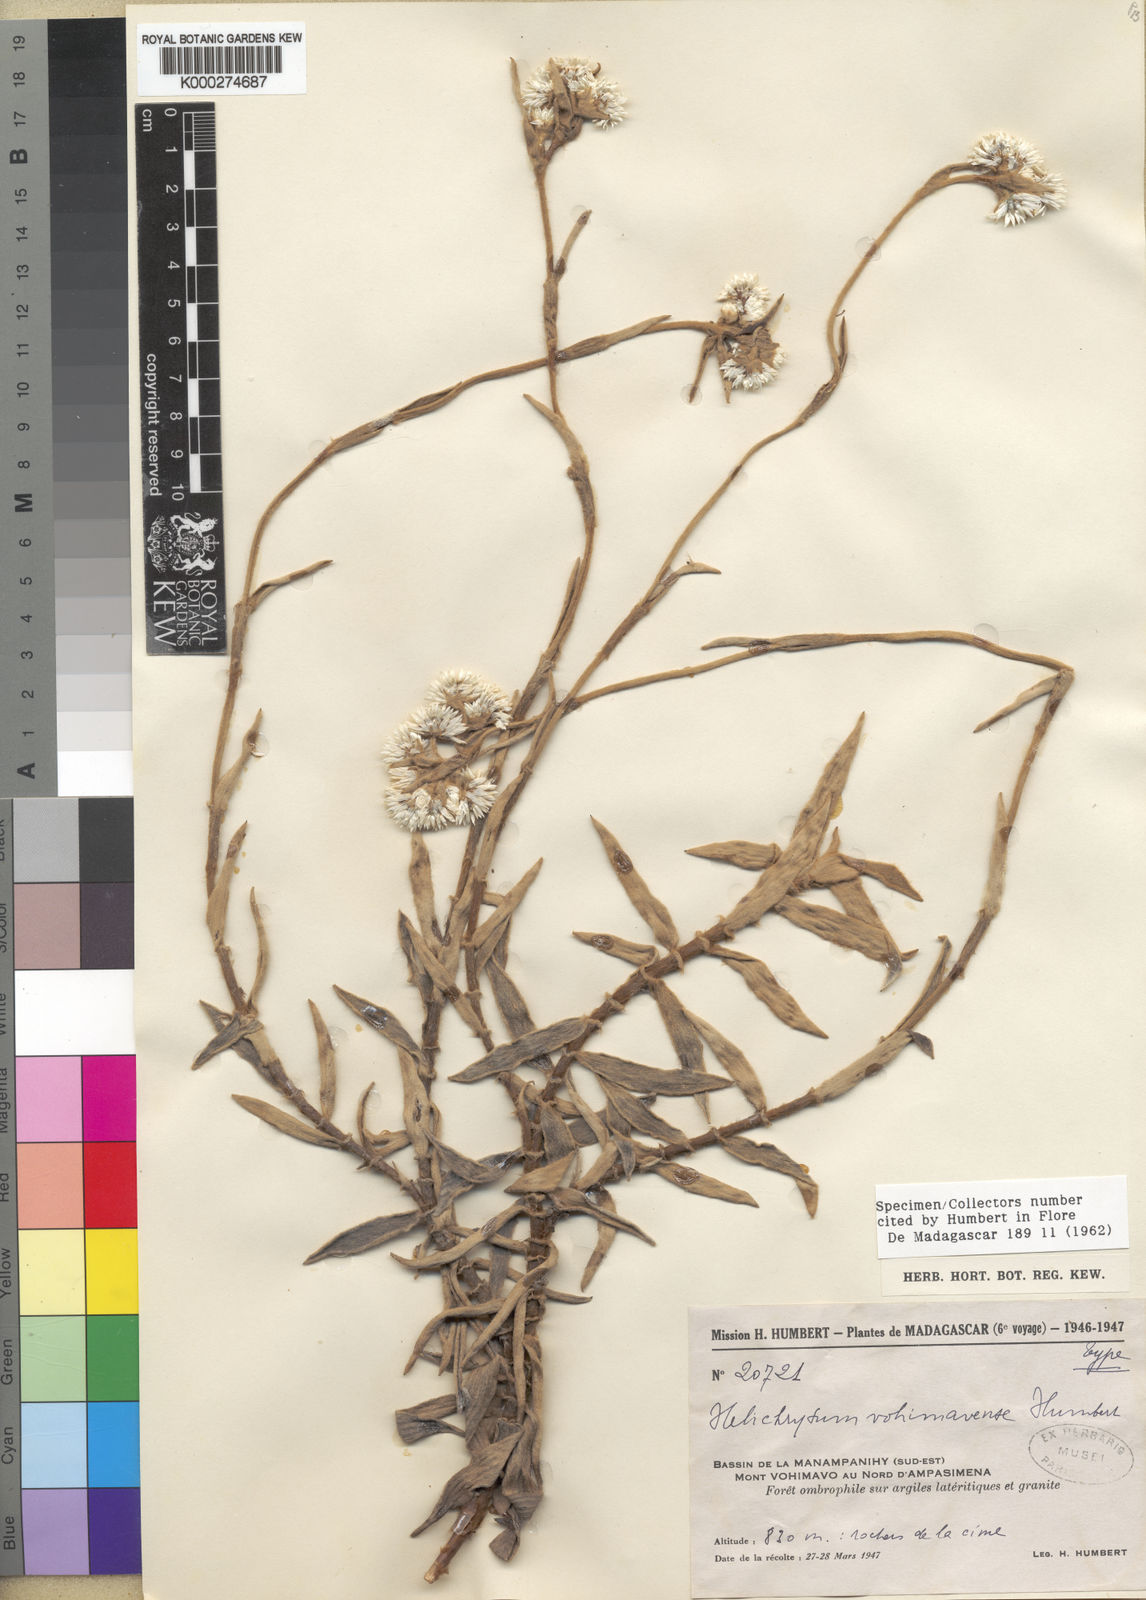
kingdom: Plantae
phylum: Tracheophyta
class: Magnoliopsida
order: Asterales
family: Asteraceae
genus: Helichrysum
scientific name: Helichrysum vohimavense
